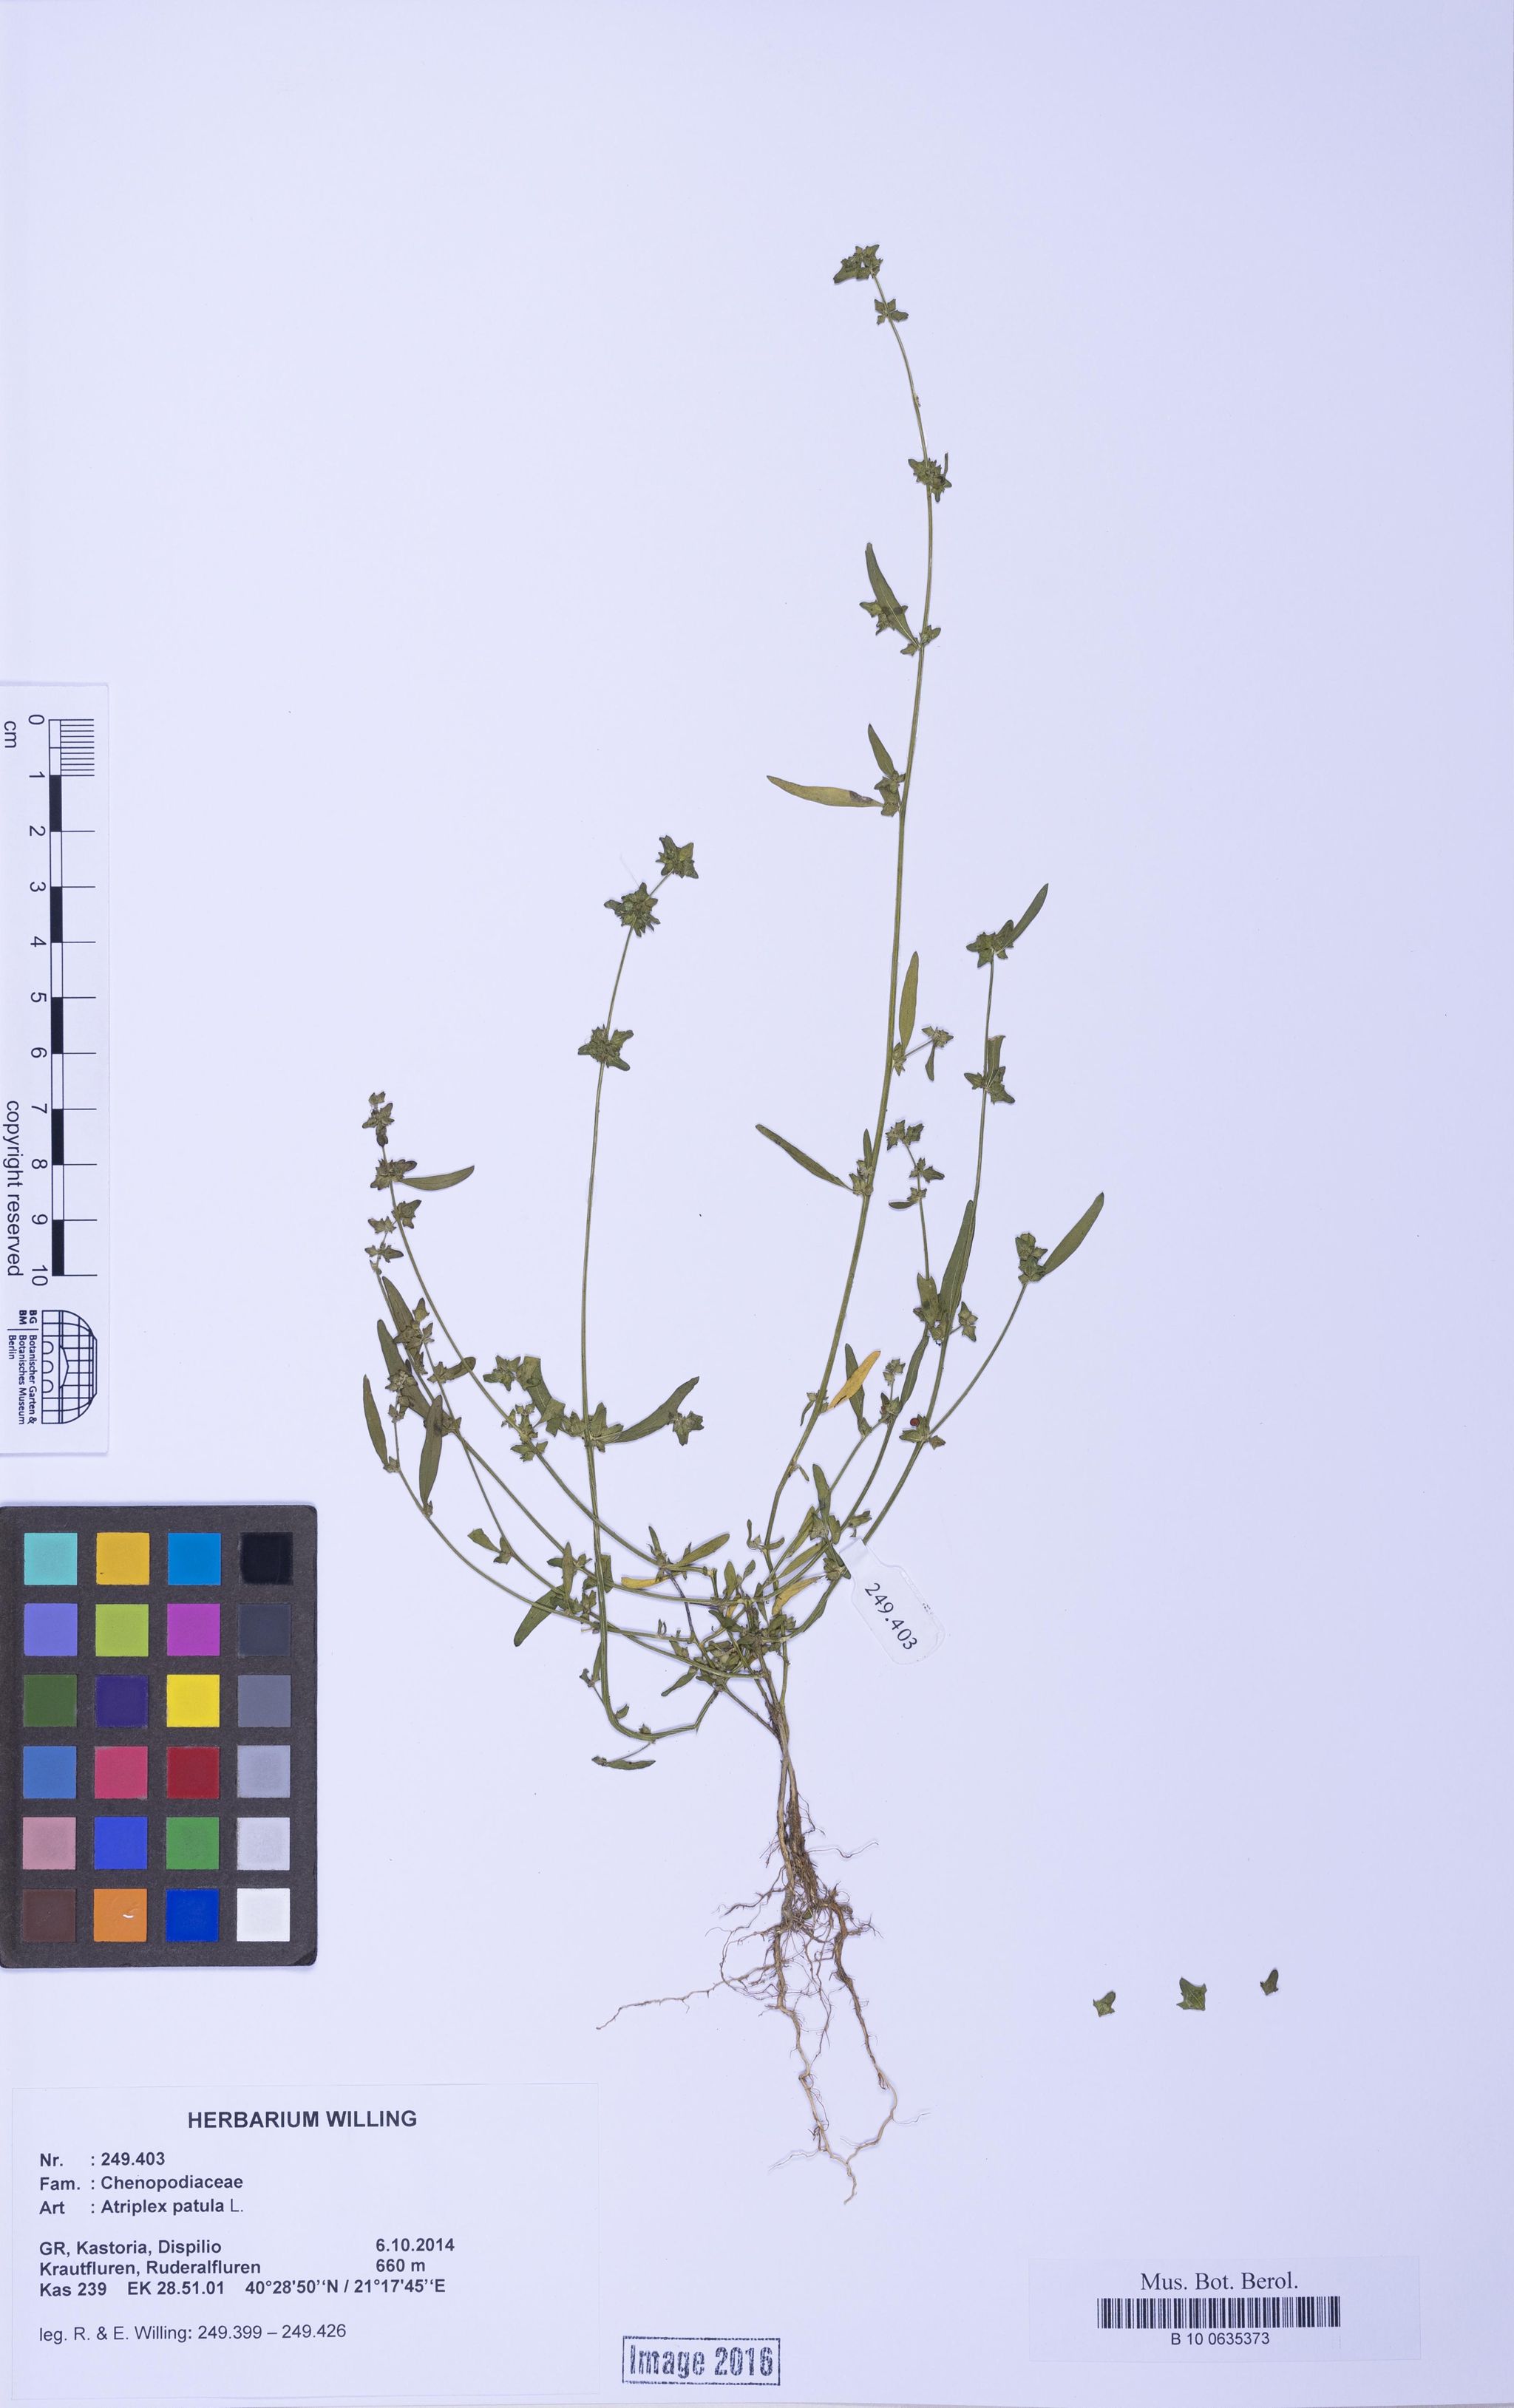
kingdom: Plantae
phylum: Tracheophyta
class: Magnoliopsida
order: Caryophyllales
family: Amaranthaceae
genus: Atriplex
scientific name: Atriplex patula
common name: Common orache
